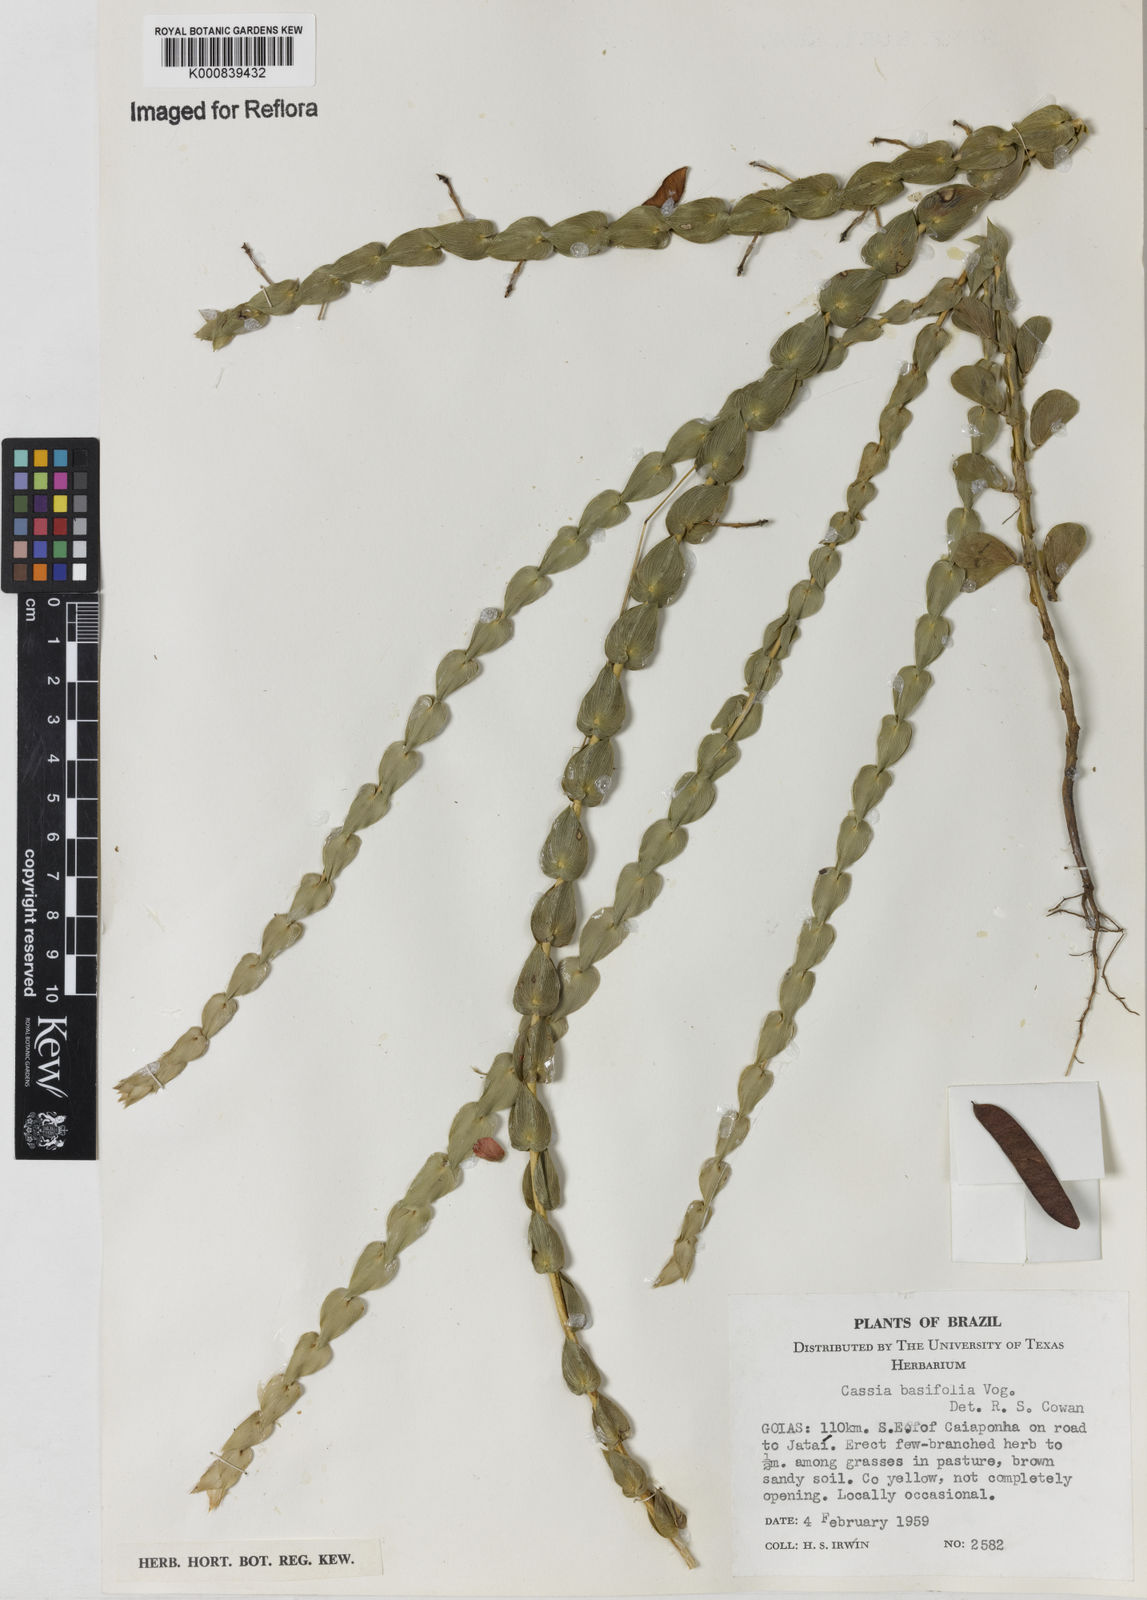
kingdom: Plantae
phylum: Tracheophyta
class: Magnoliopsida
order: Fabales
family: Fabaceae
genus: Chamaecrista
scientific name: Chamaecrista basifolia
